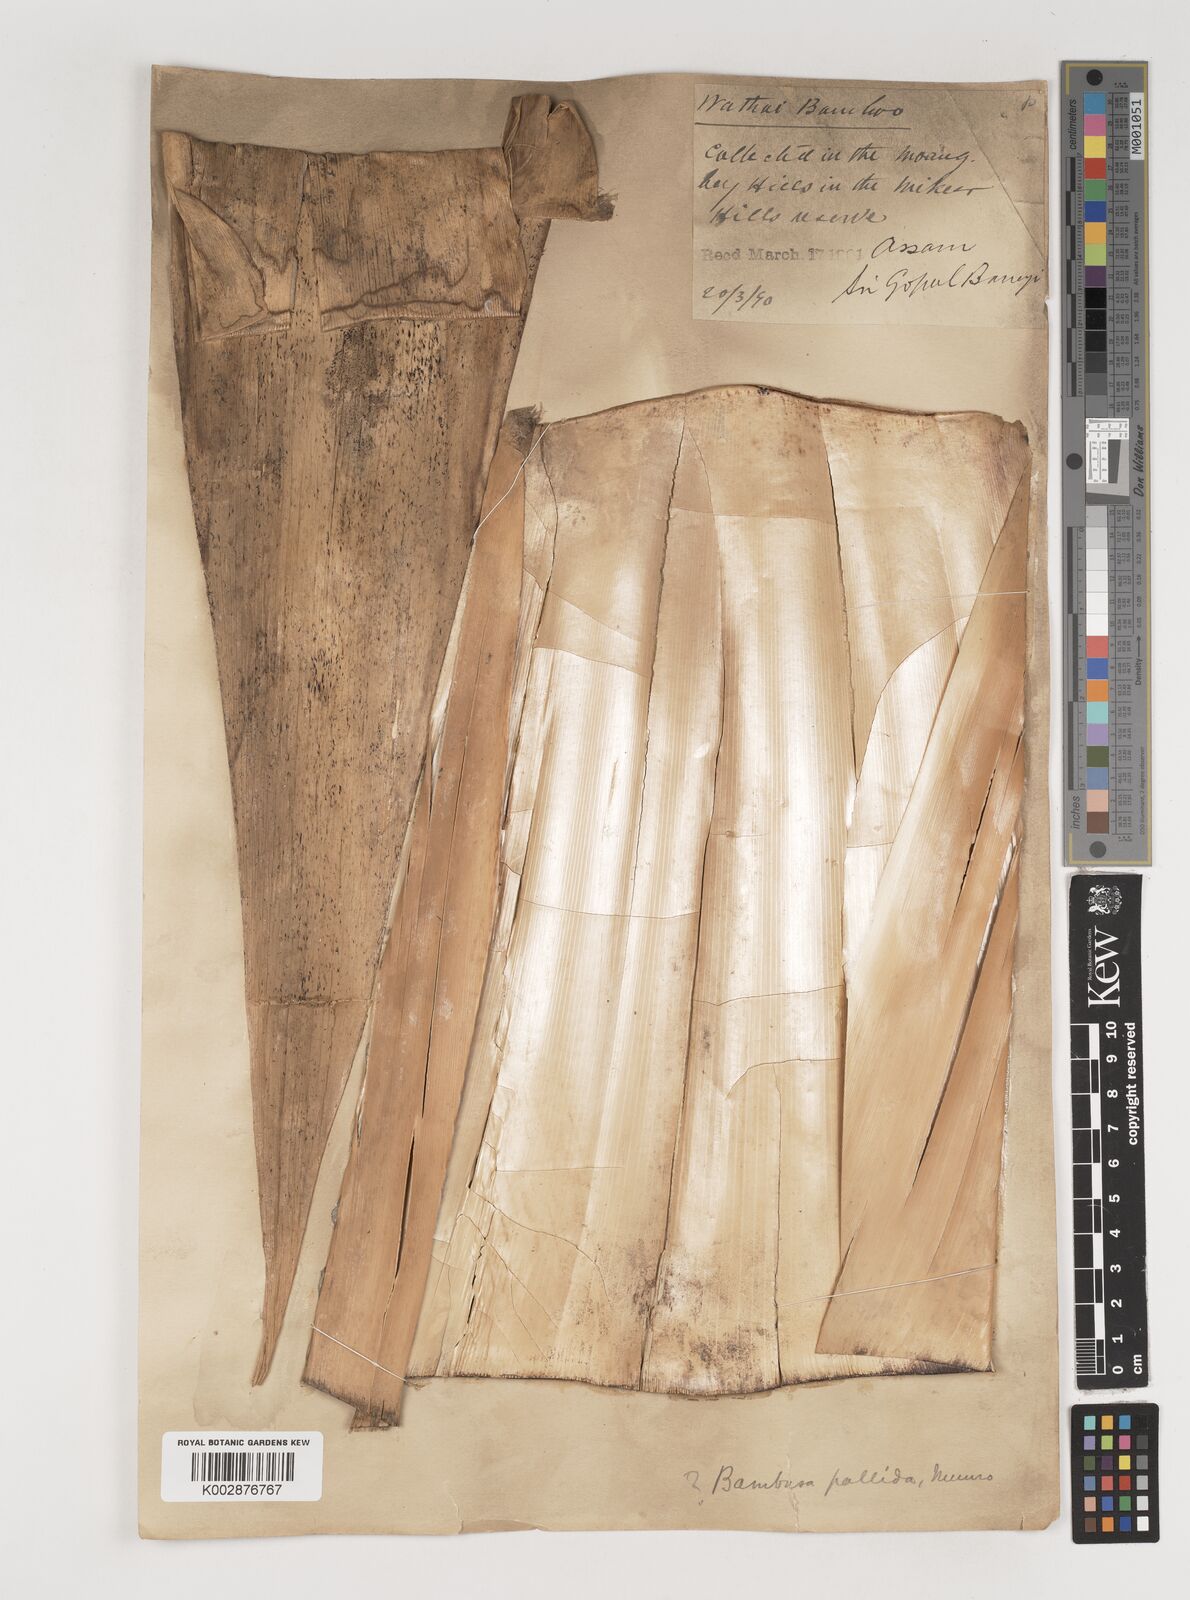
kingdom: Plantae
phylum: Tracheophyta
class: Liliopsida
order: Poales
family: Poaceae
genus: Bambusa
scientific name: Bambusa pallida
